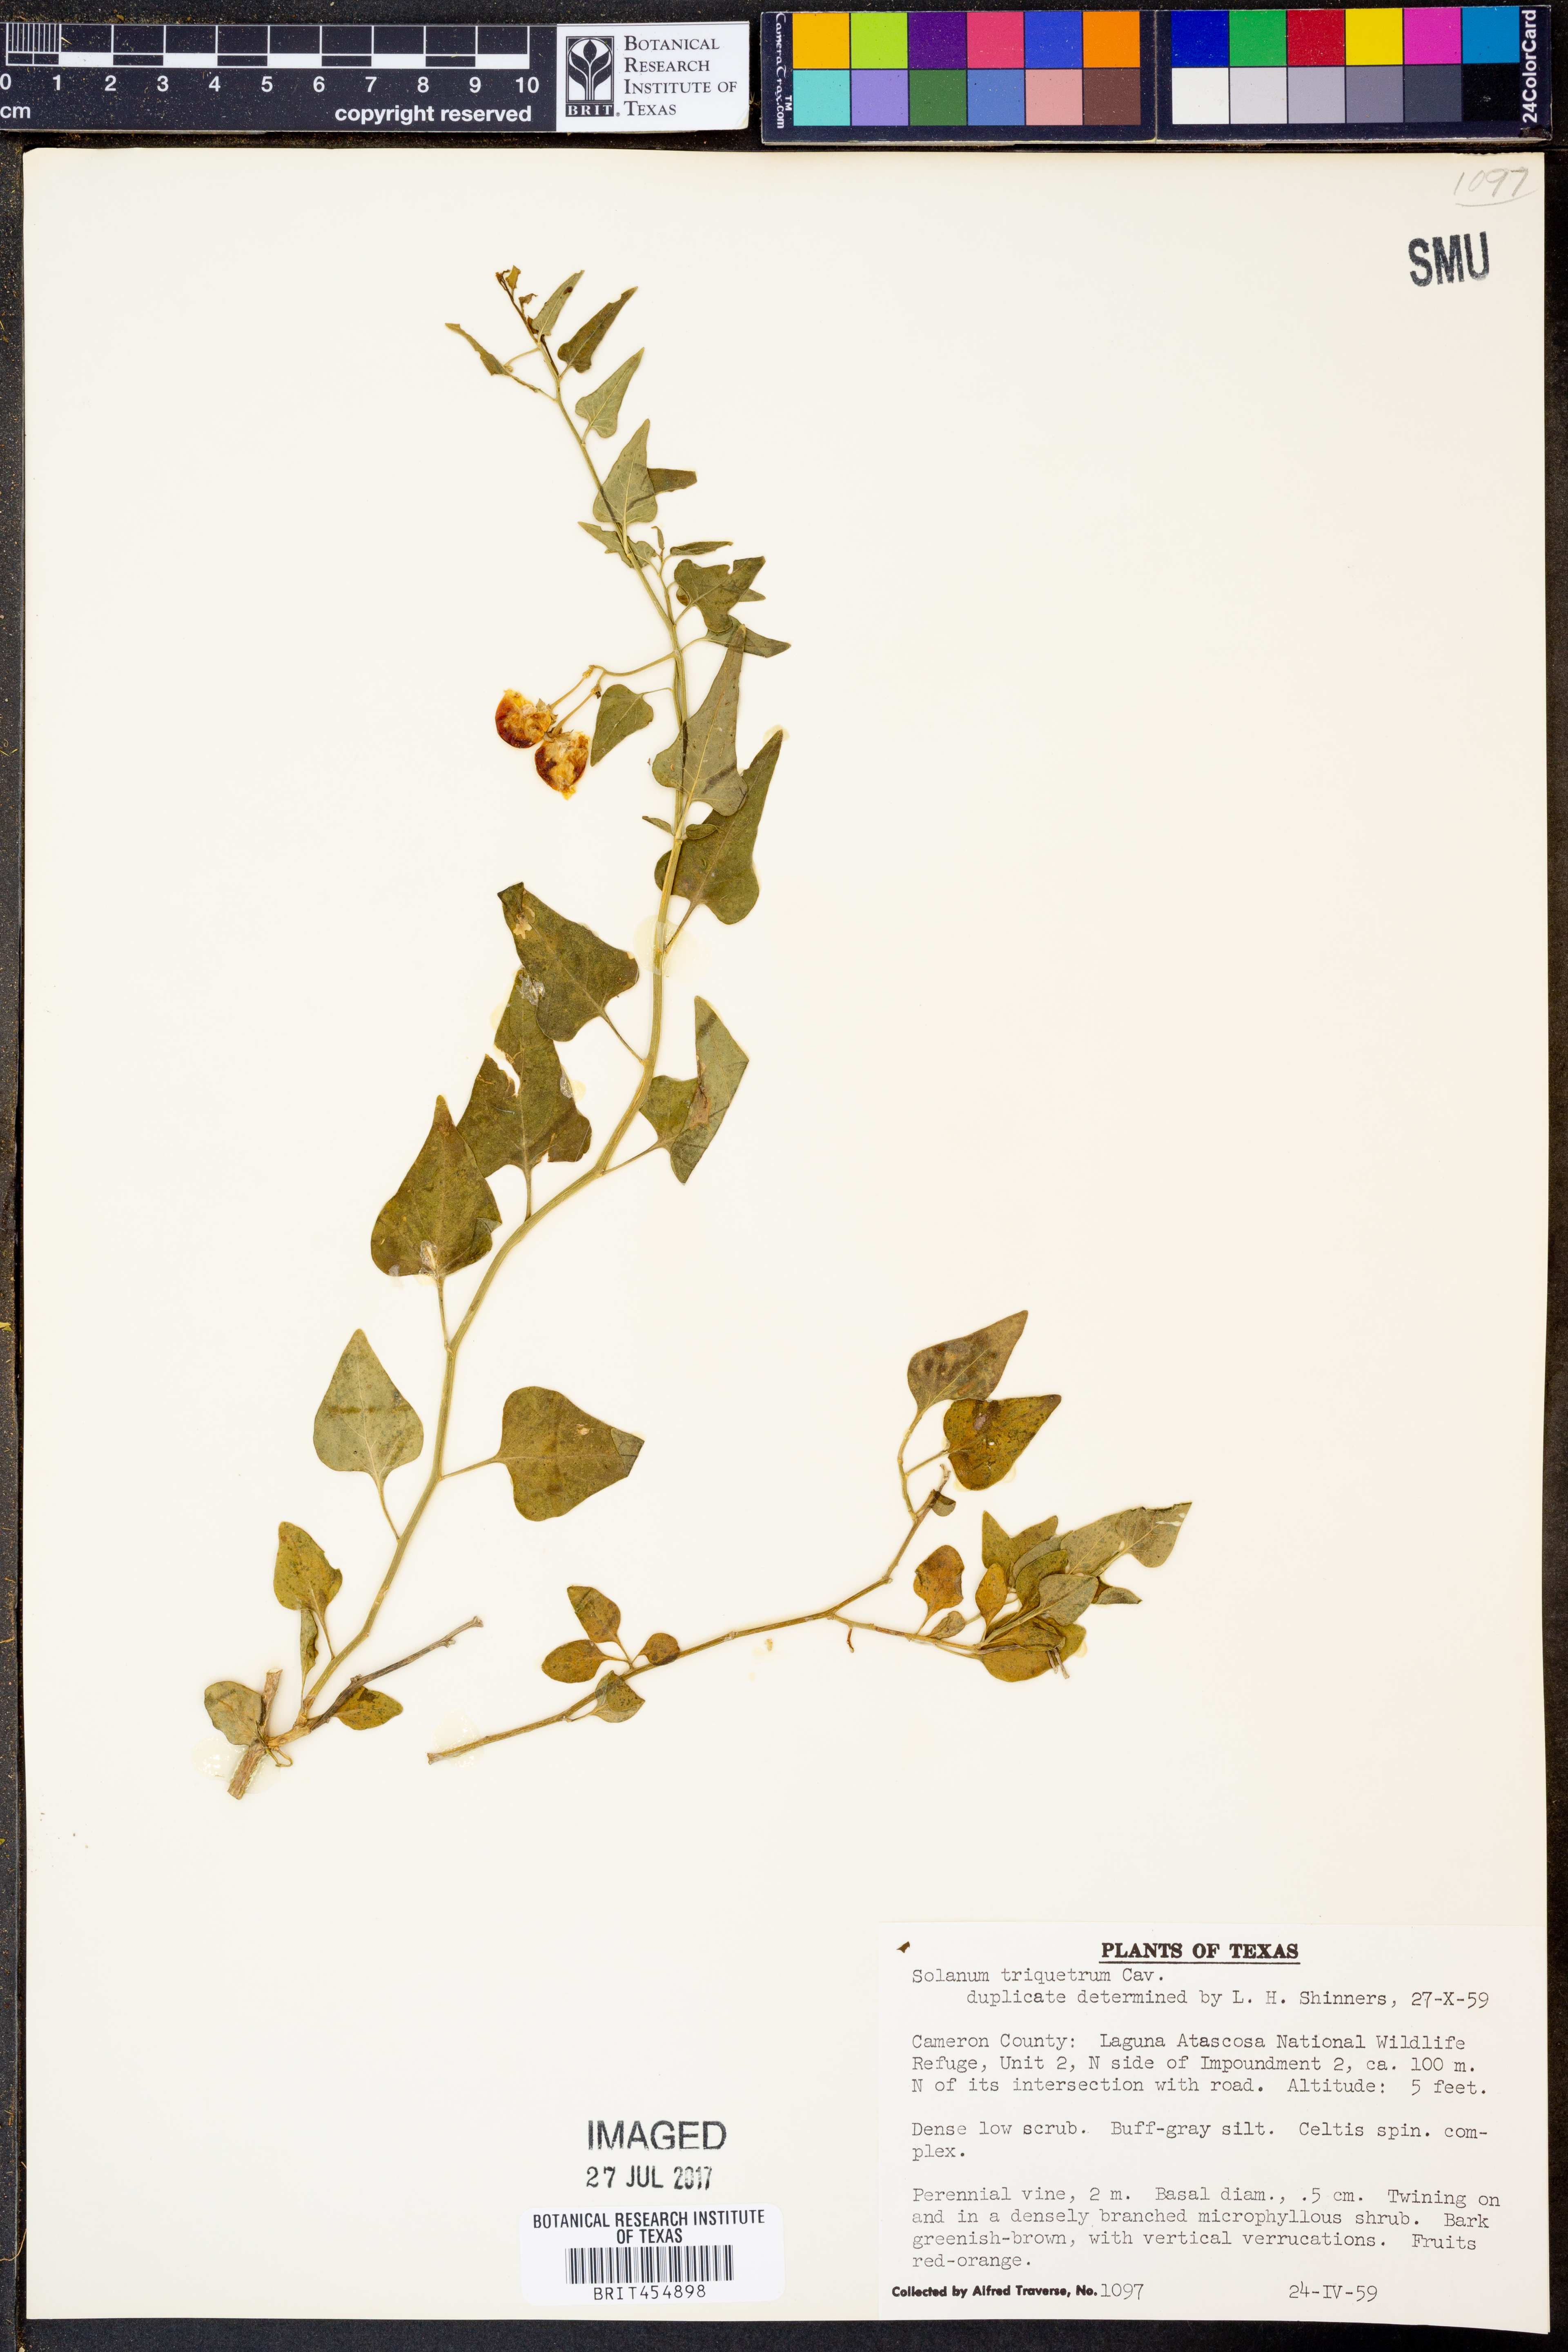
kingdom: Plantae
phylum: Tracheophyta
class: Magnoliopsida
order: Solanales
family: Solanaceae
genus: Solanum
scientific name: Solanum triquetrum
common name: Texas nightshade
